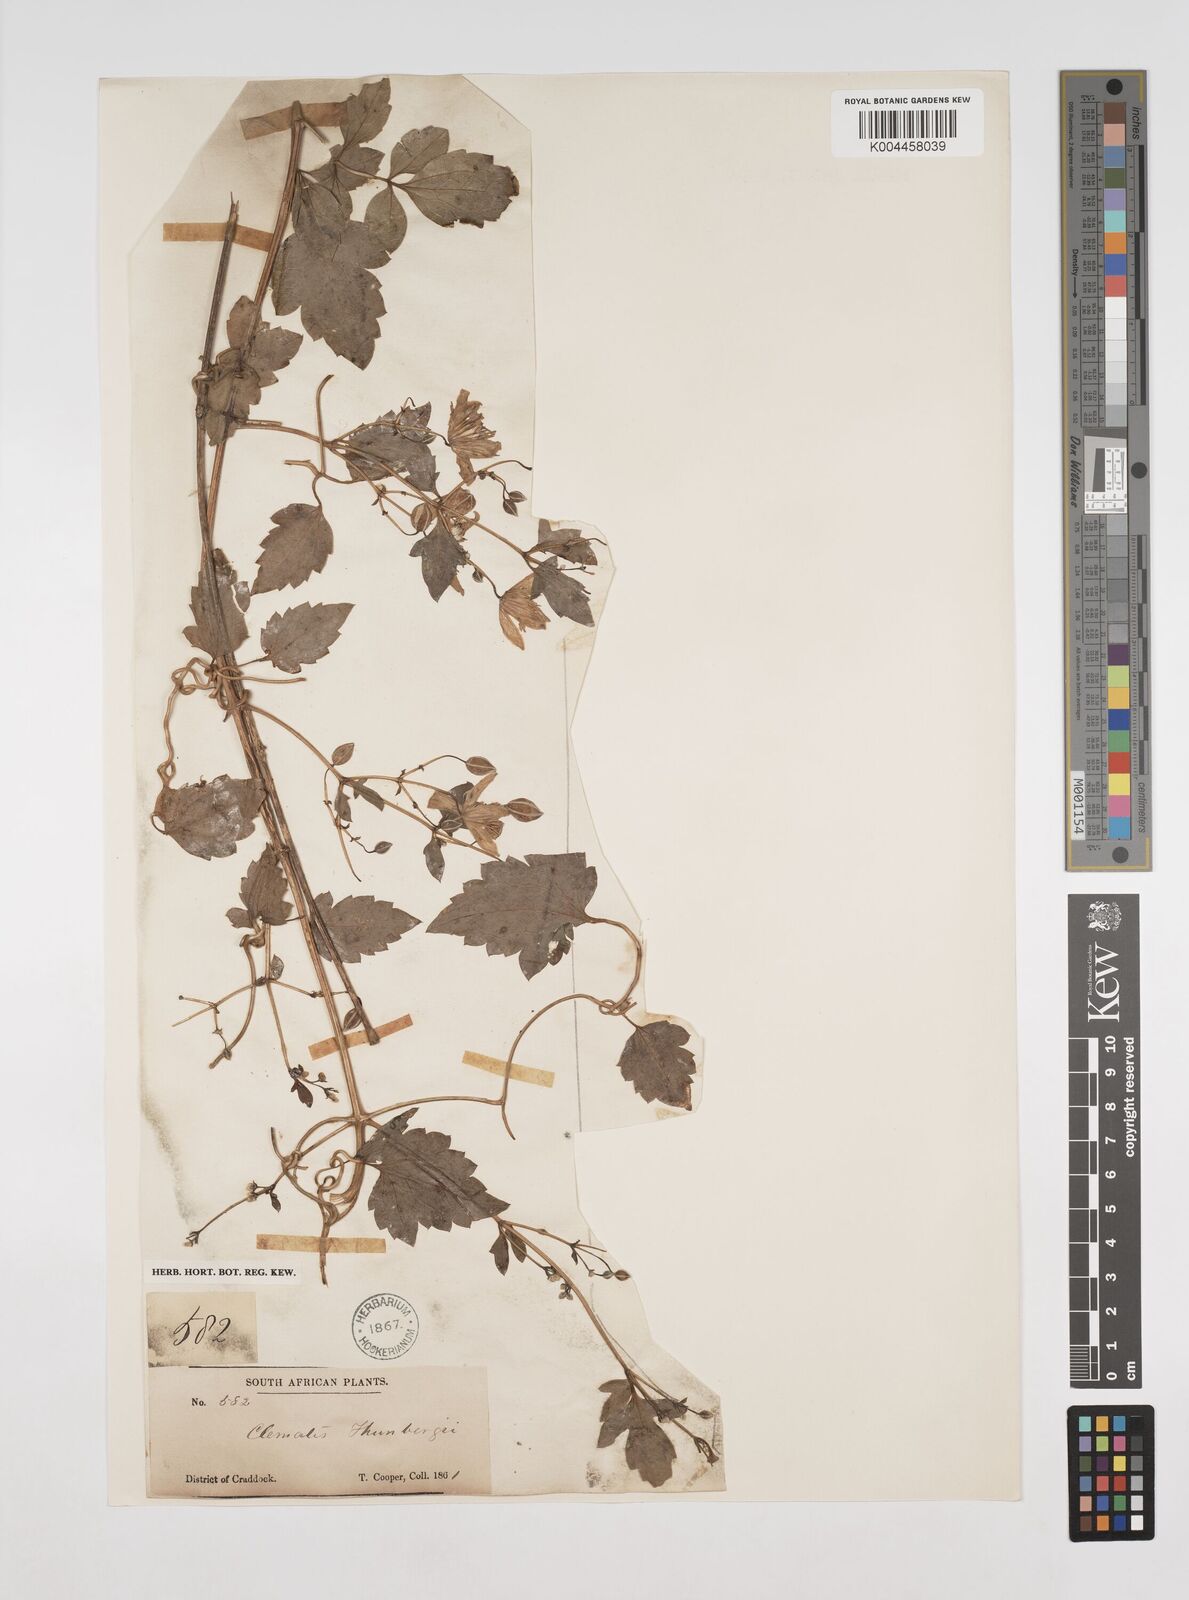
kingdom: Plantae
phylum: Tracheophyta
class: Magnoliopsida
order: Ranunculales
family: Ranunculaceae
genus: Clematis
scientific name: Clematis brachiata
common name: Traveler's-joy
